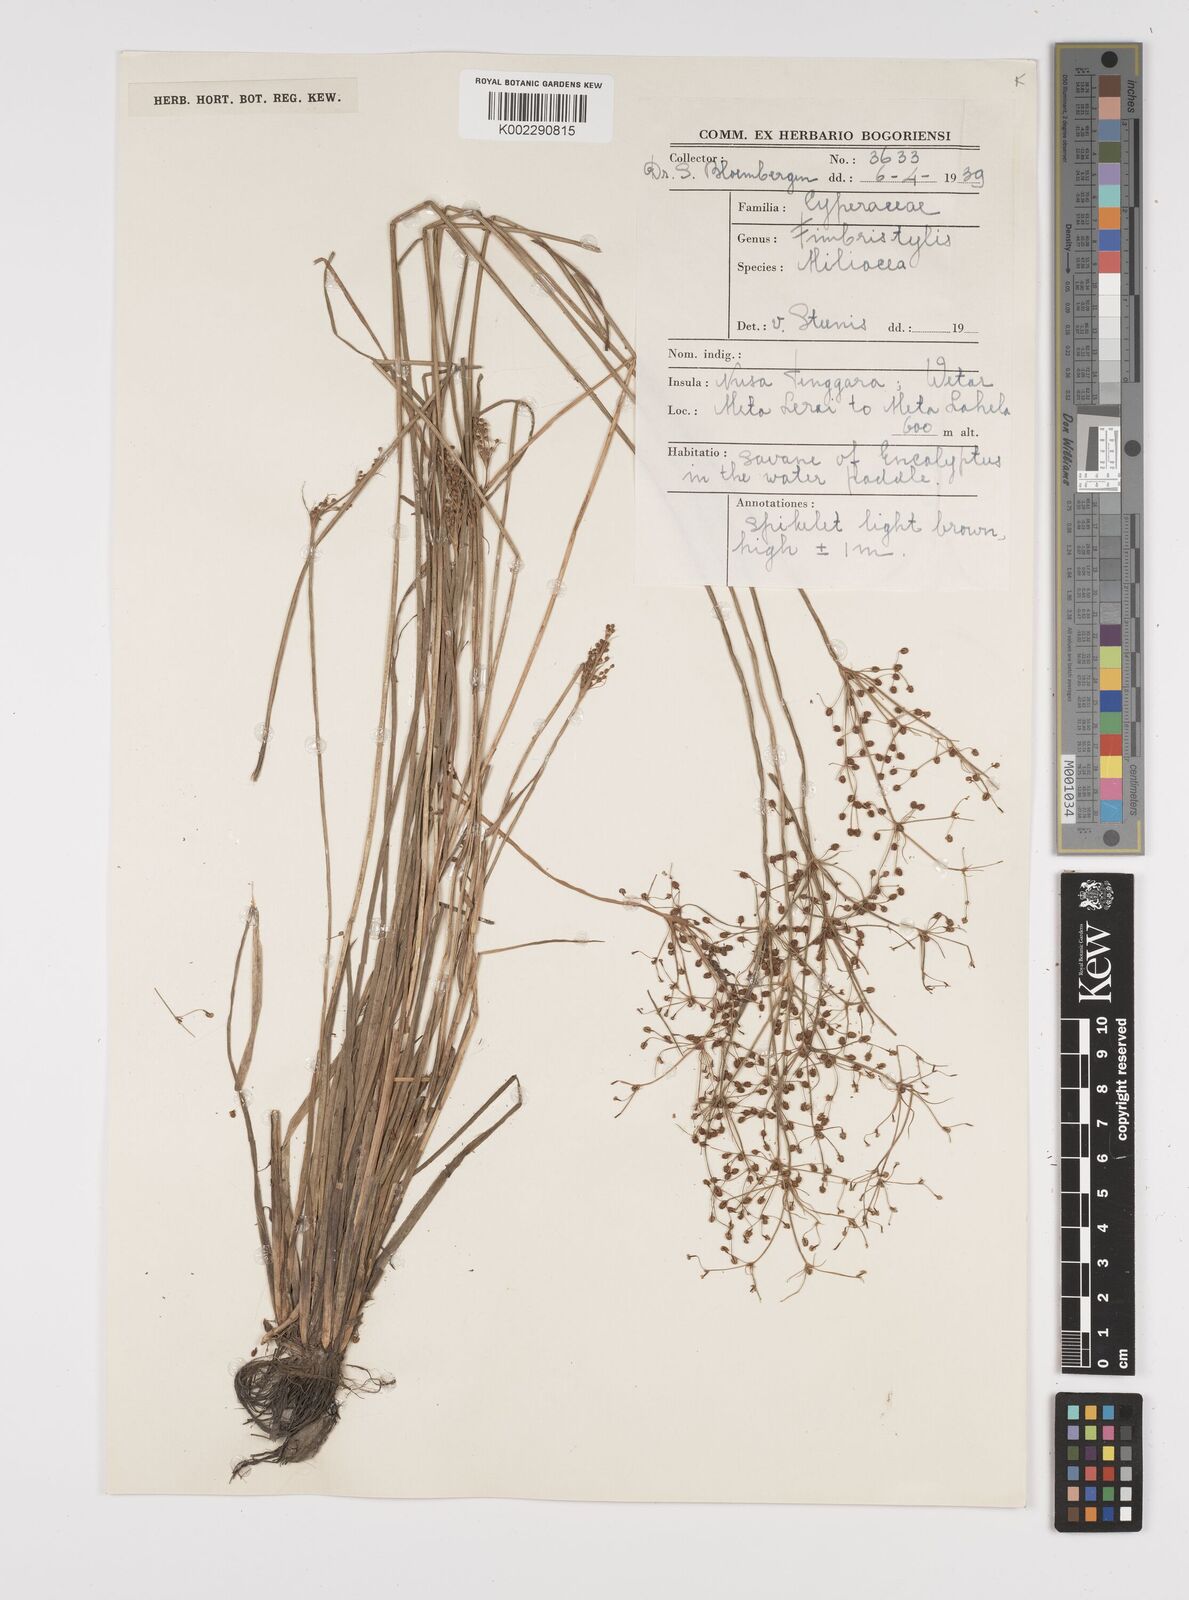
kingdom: Plantae
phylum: Tracheophyta
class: Liliopsida
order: Poales
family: Cyperaceae
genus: Fimbristylis
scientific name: Fimbristylis littoralis
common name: Fimbry
